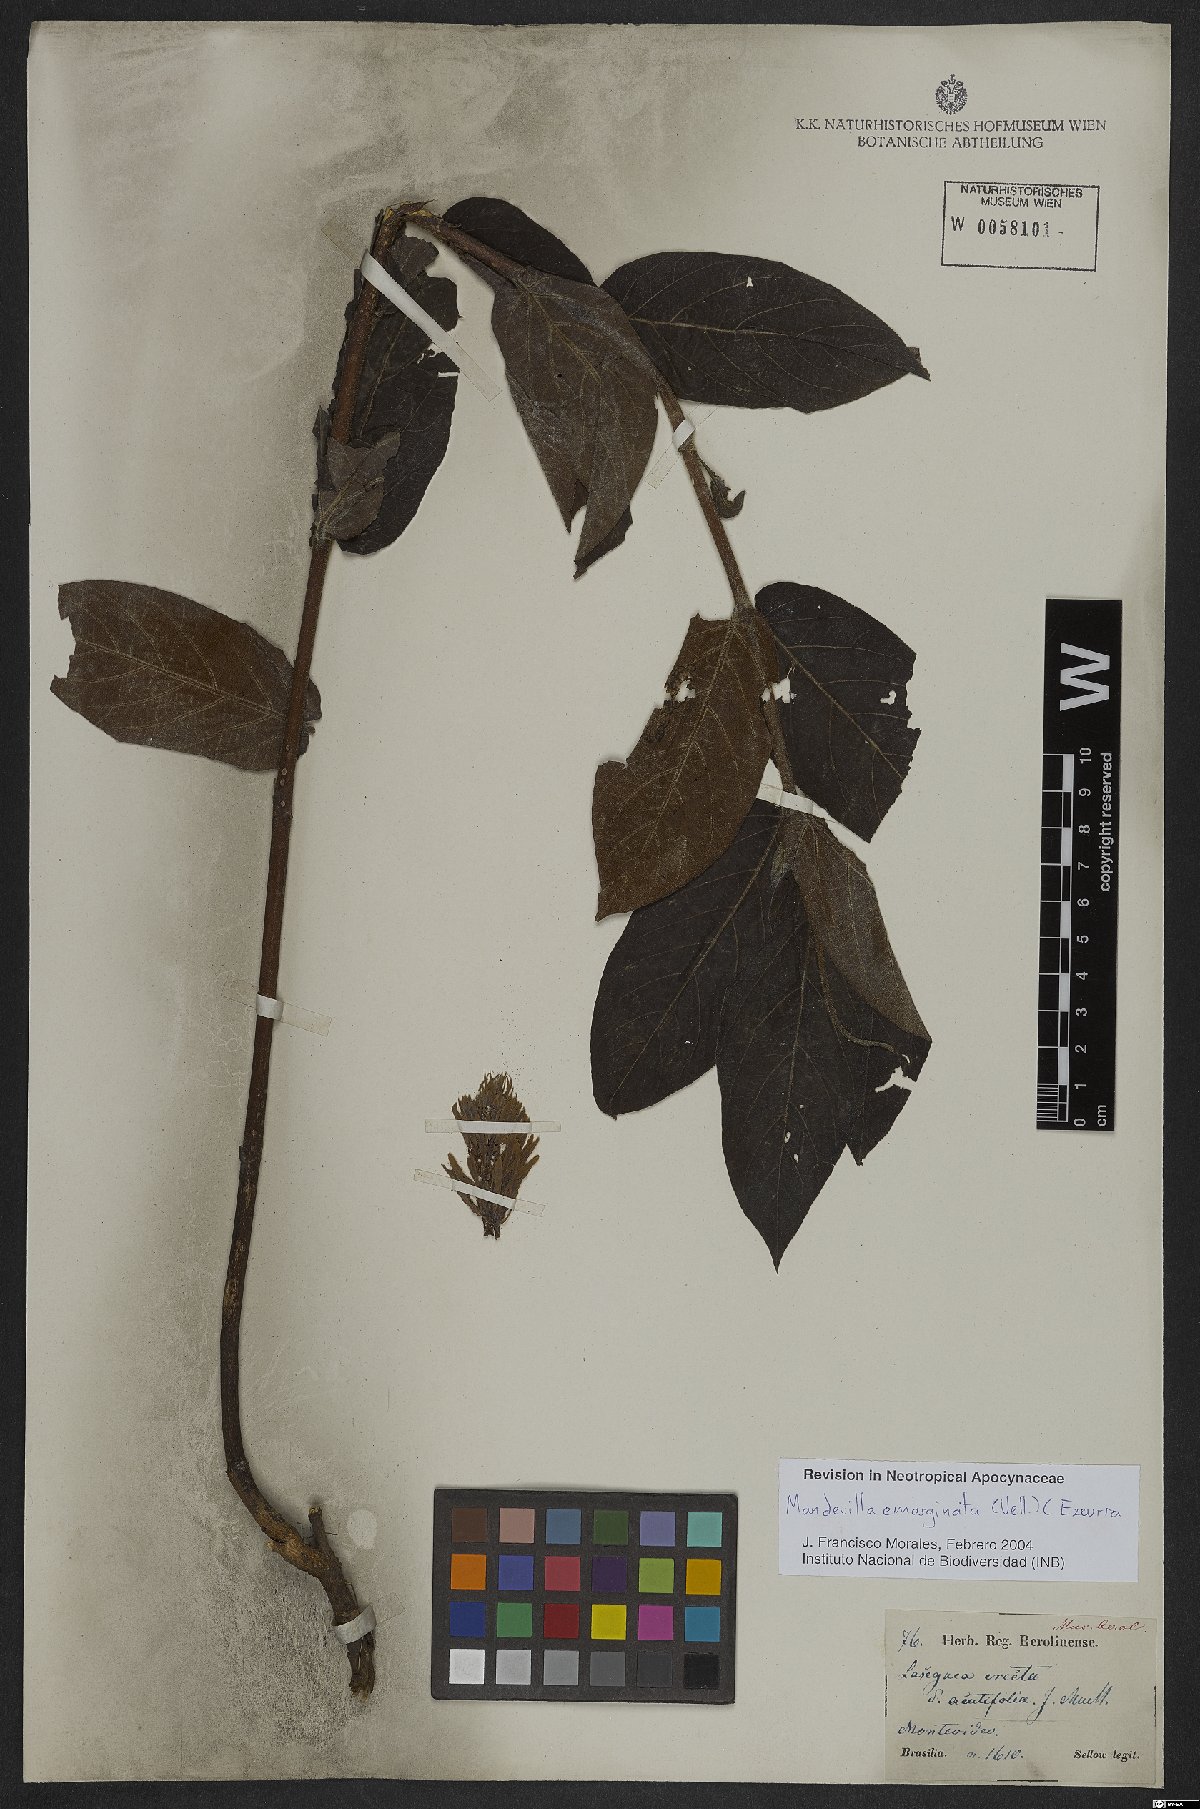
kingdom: Plantae
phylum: Tracheophyta
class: Magnoliopsida
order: Gentianales
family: Apocynaceae
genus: Mandevilla
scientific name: Mandevilla emarginata
